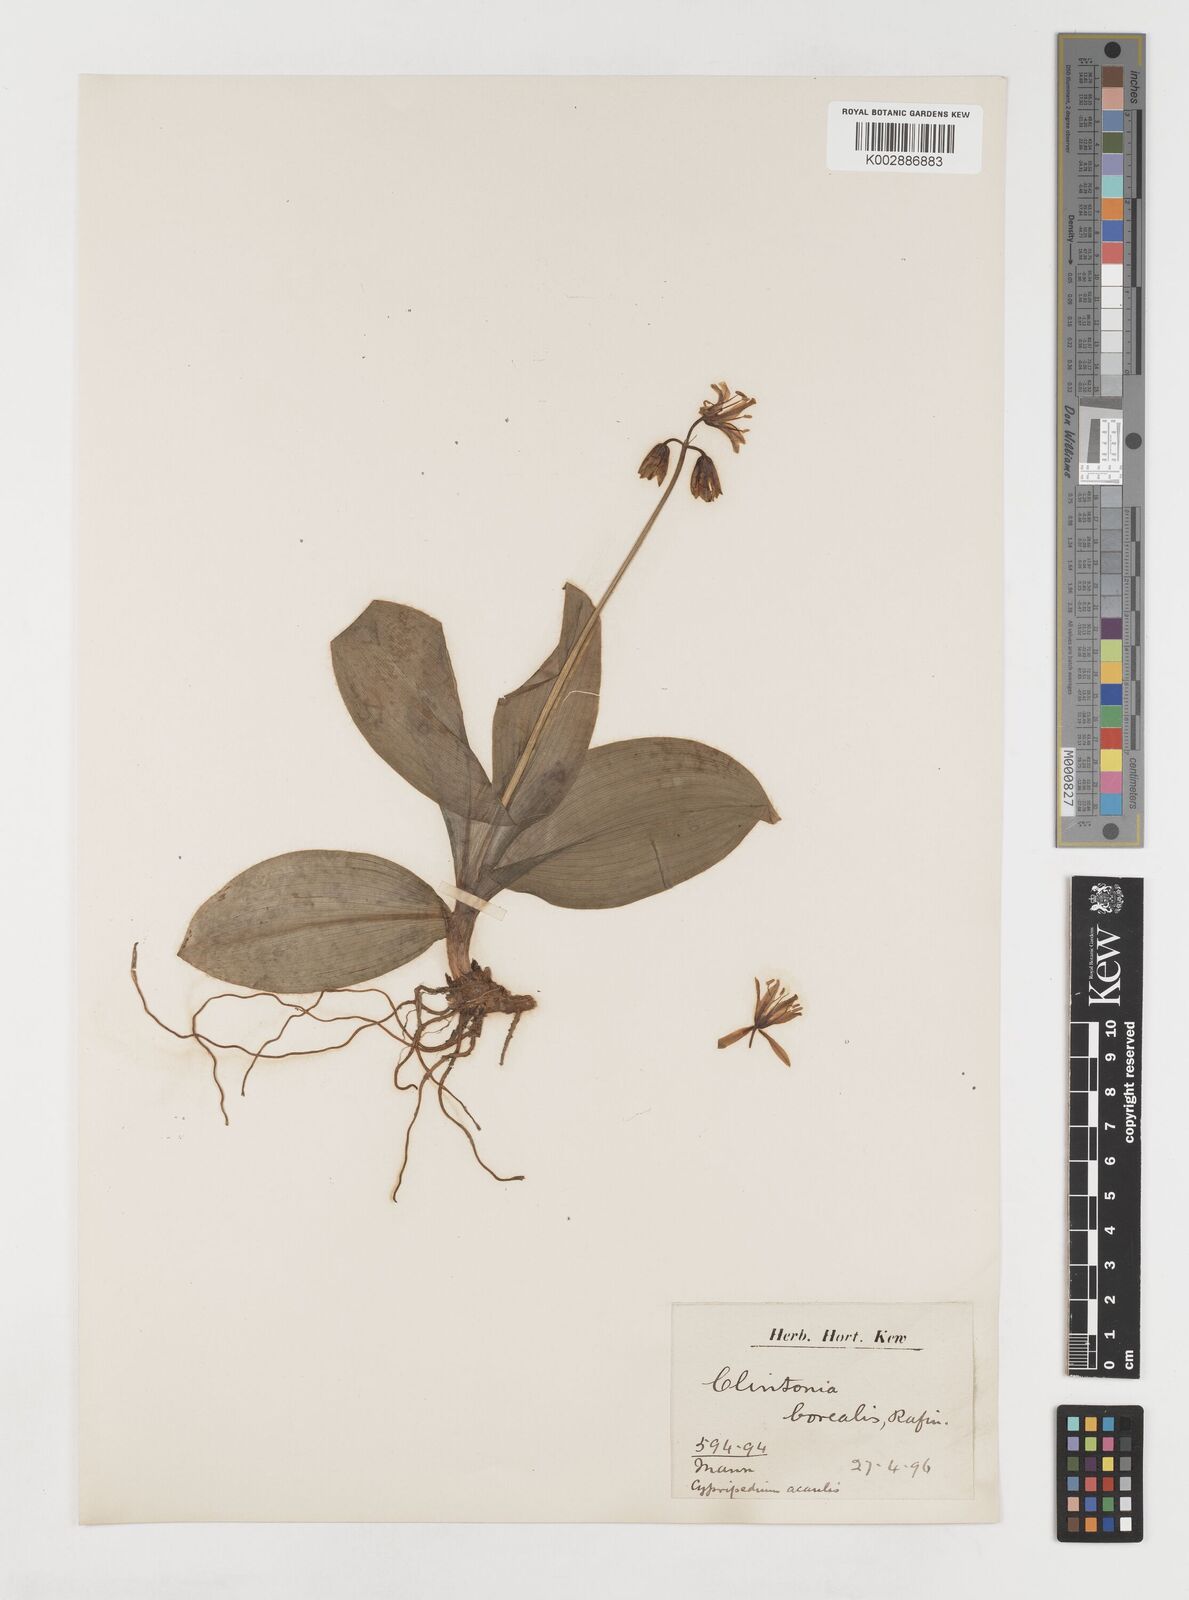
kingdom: Plantae
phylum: Tracheophyta
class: Liliopsida
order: Liliales
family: Liliaceae
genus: Clintonia
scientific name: Clintonia borealis
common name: Yellow clintonia
